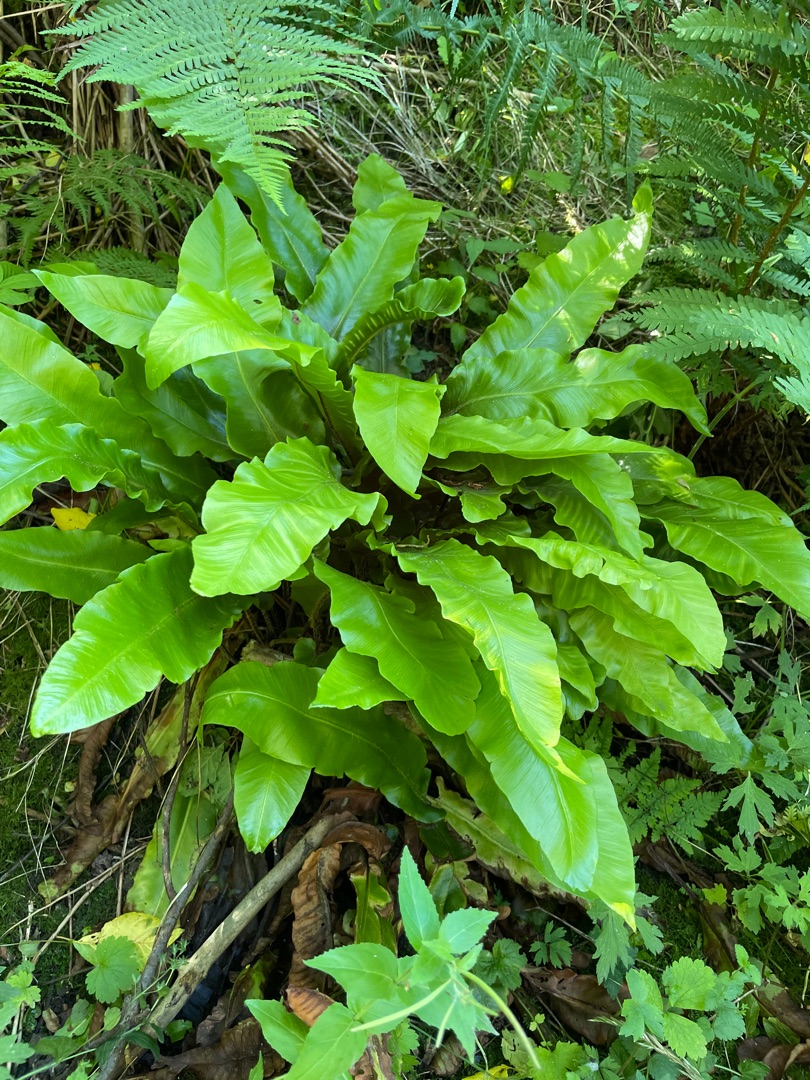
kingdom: Plantae
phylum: Tracheophyta
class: Polypodiopsida
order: Polypodiales
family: Aspleniaceae
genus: Asplenium
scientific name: Asplenium scolopendrium
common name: Hjortetunge
